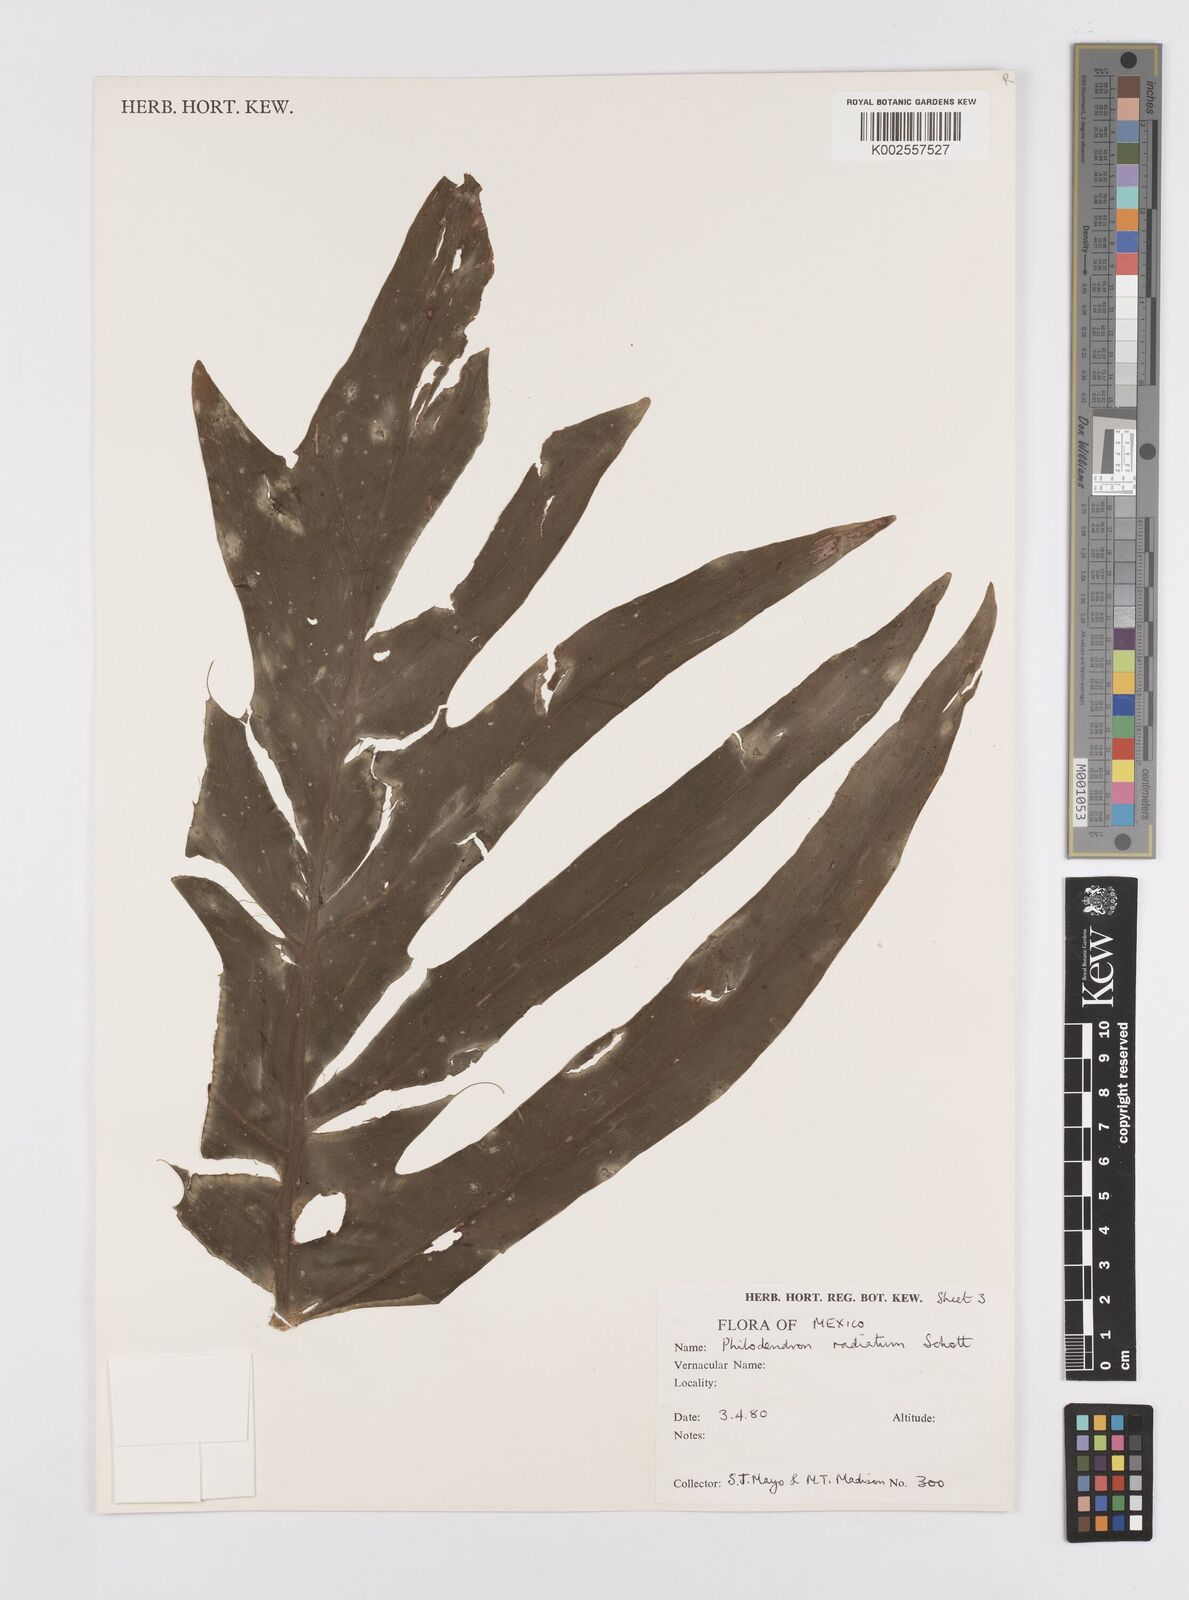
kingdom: Plantae
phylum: Tracheophyta
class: Liliopsida
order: Alismatales
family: Araceae
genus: Philodendron
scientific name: Philodendron radiatum
